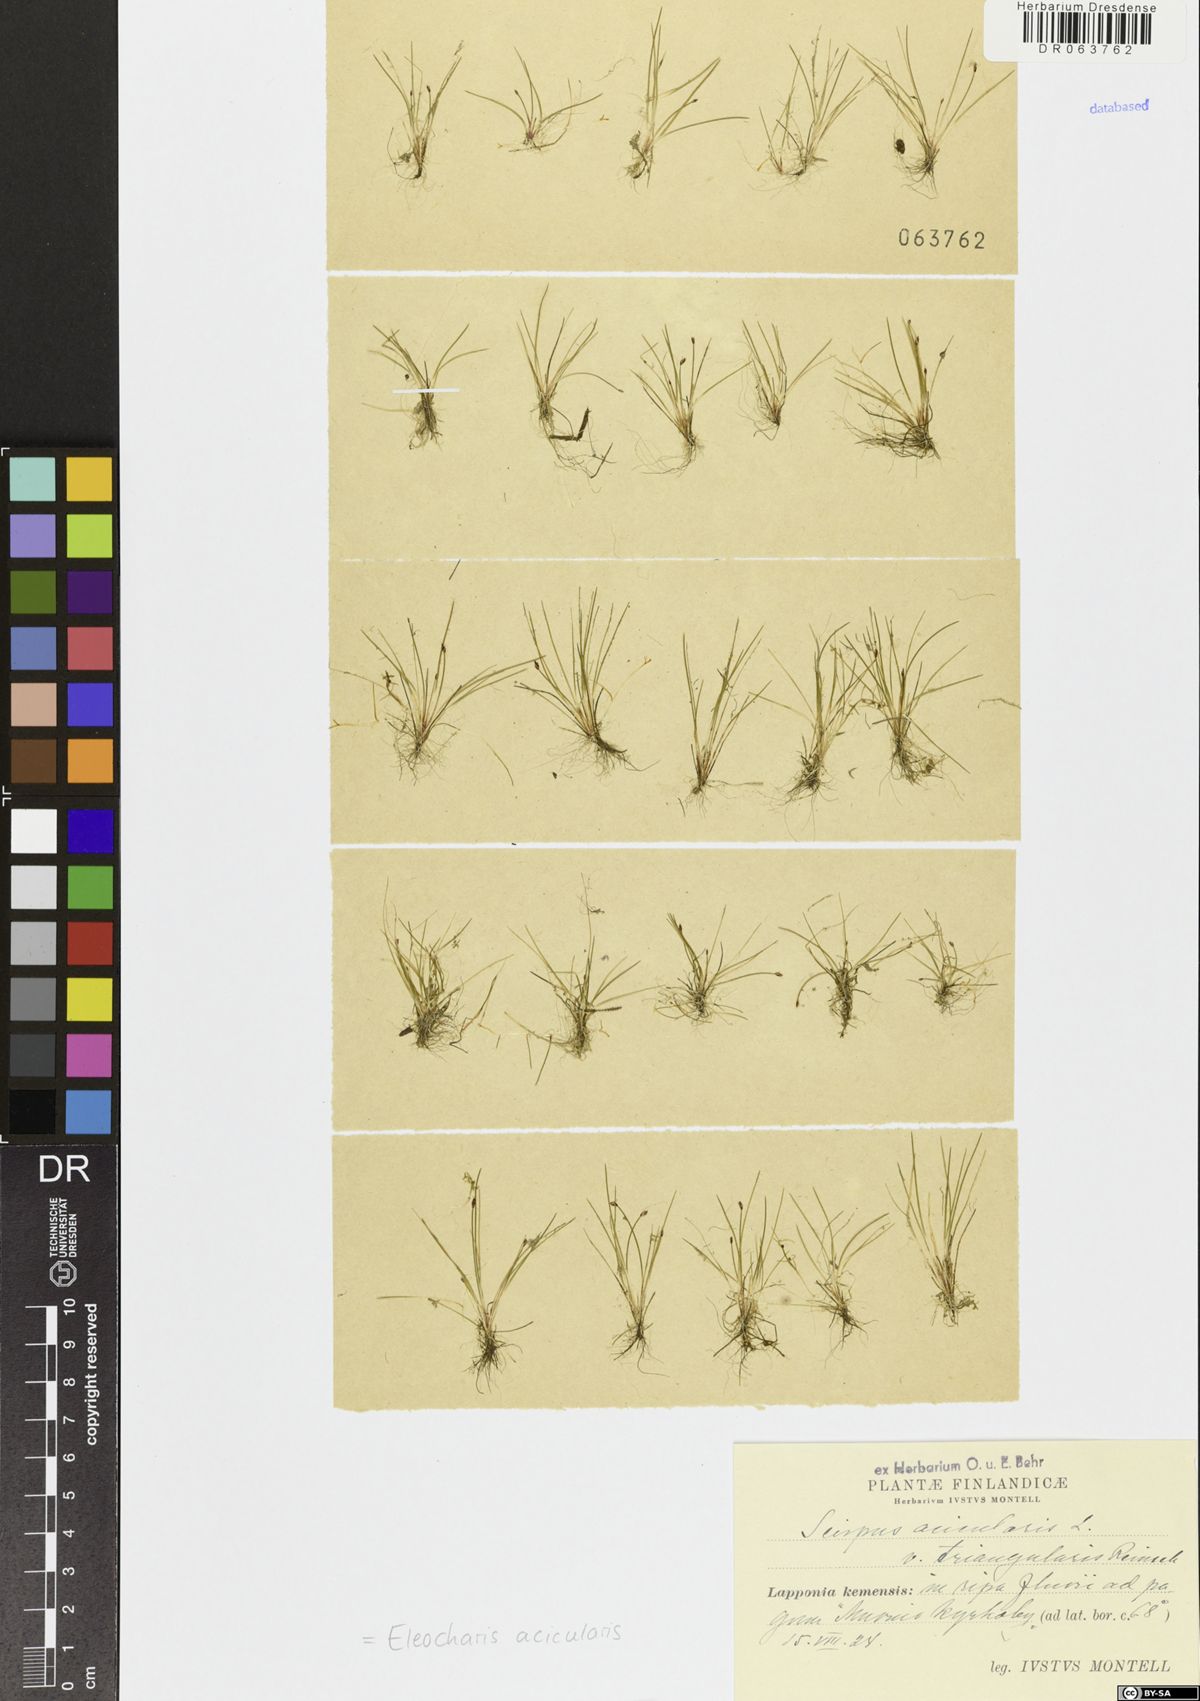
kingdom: Plantae
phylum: Tracheophyta
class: Liliopsida
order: Poales
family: Cyperaceae
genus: Eleocharis
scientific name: Eleocharis acicularis
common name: Needle spike-rush
